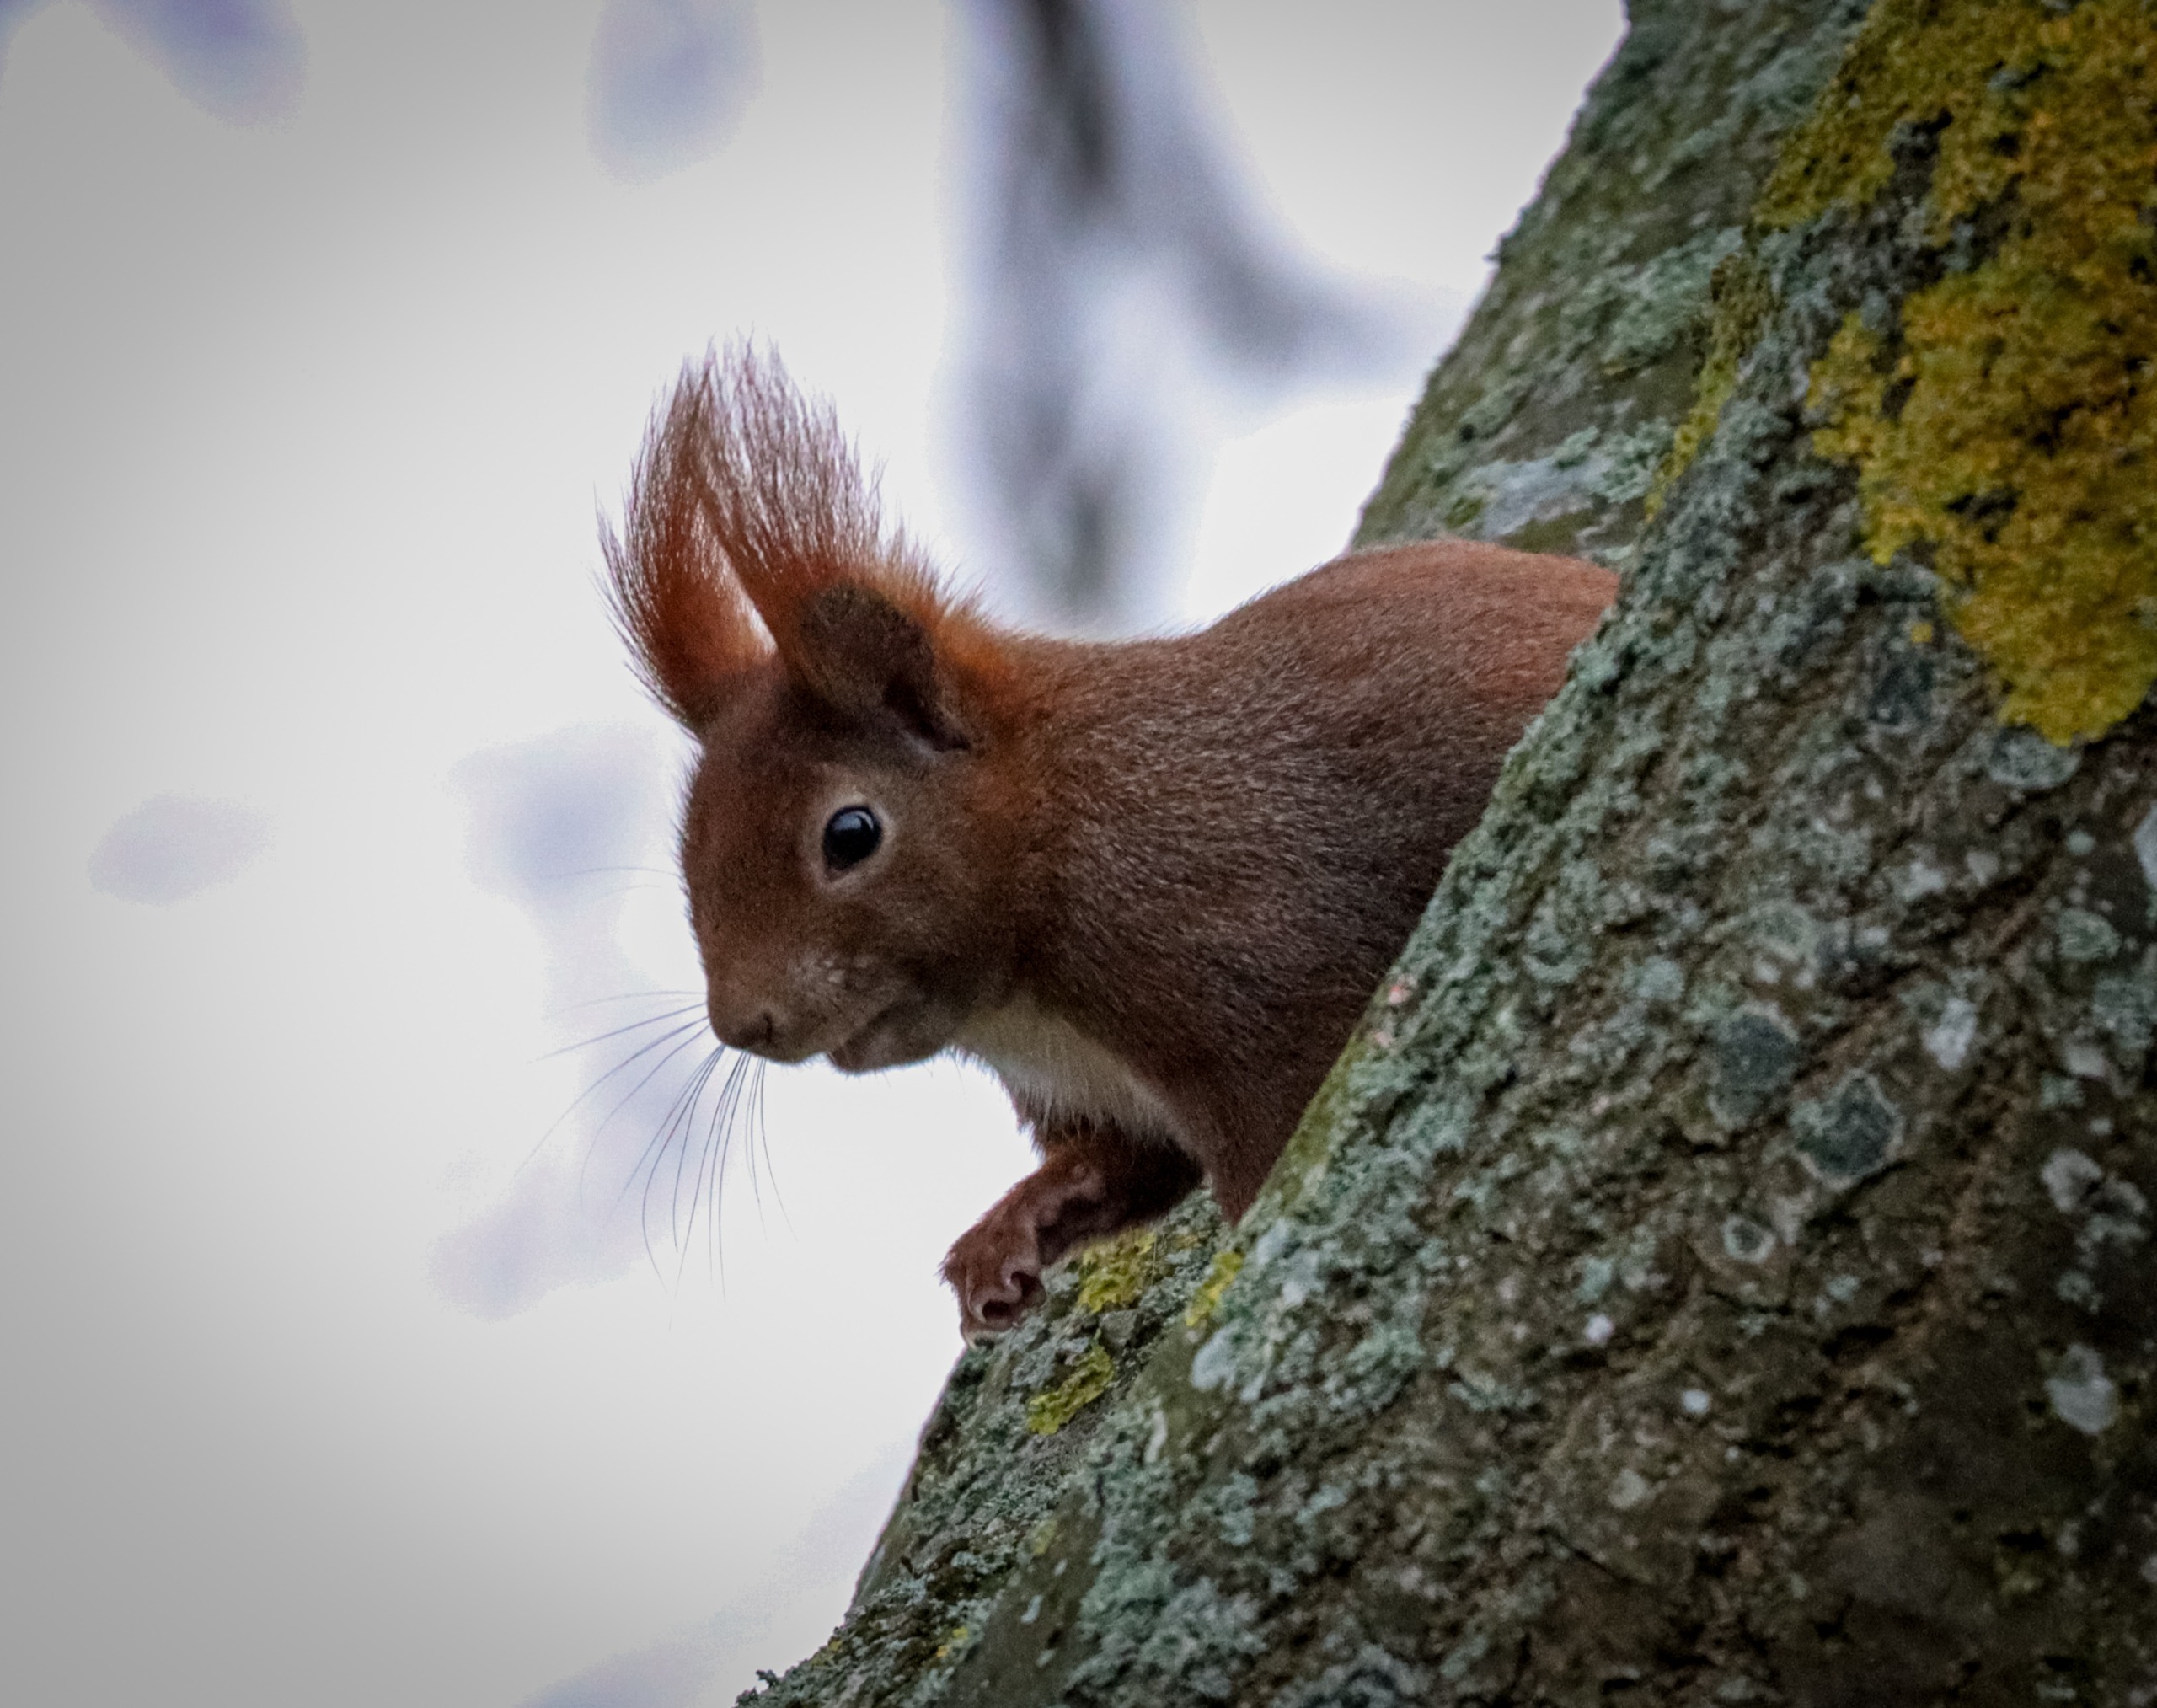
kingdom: Animalia
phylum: Chordata
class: Mammalia
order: Rodentia
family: Sciuridae
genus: Sciurus
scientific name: Sciurus vulgaris
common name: Egern
